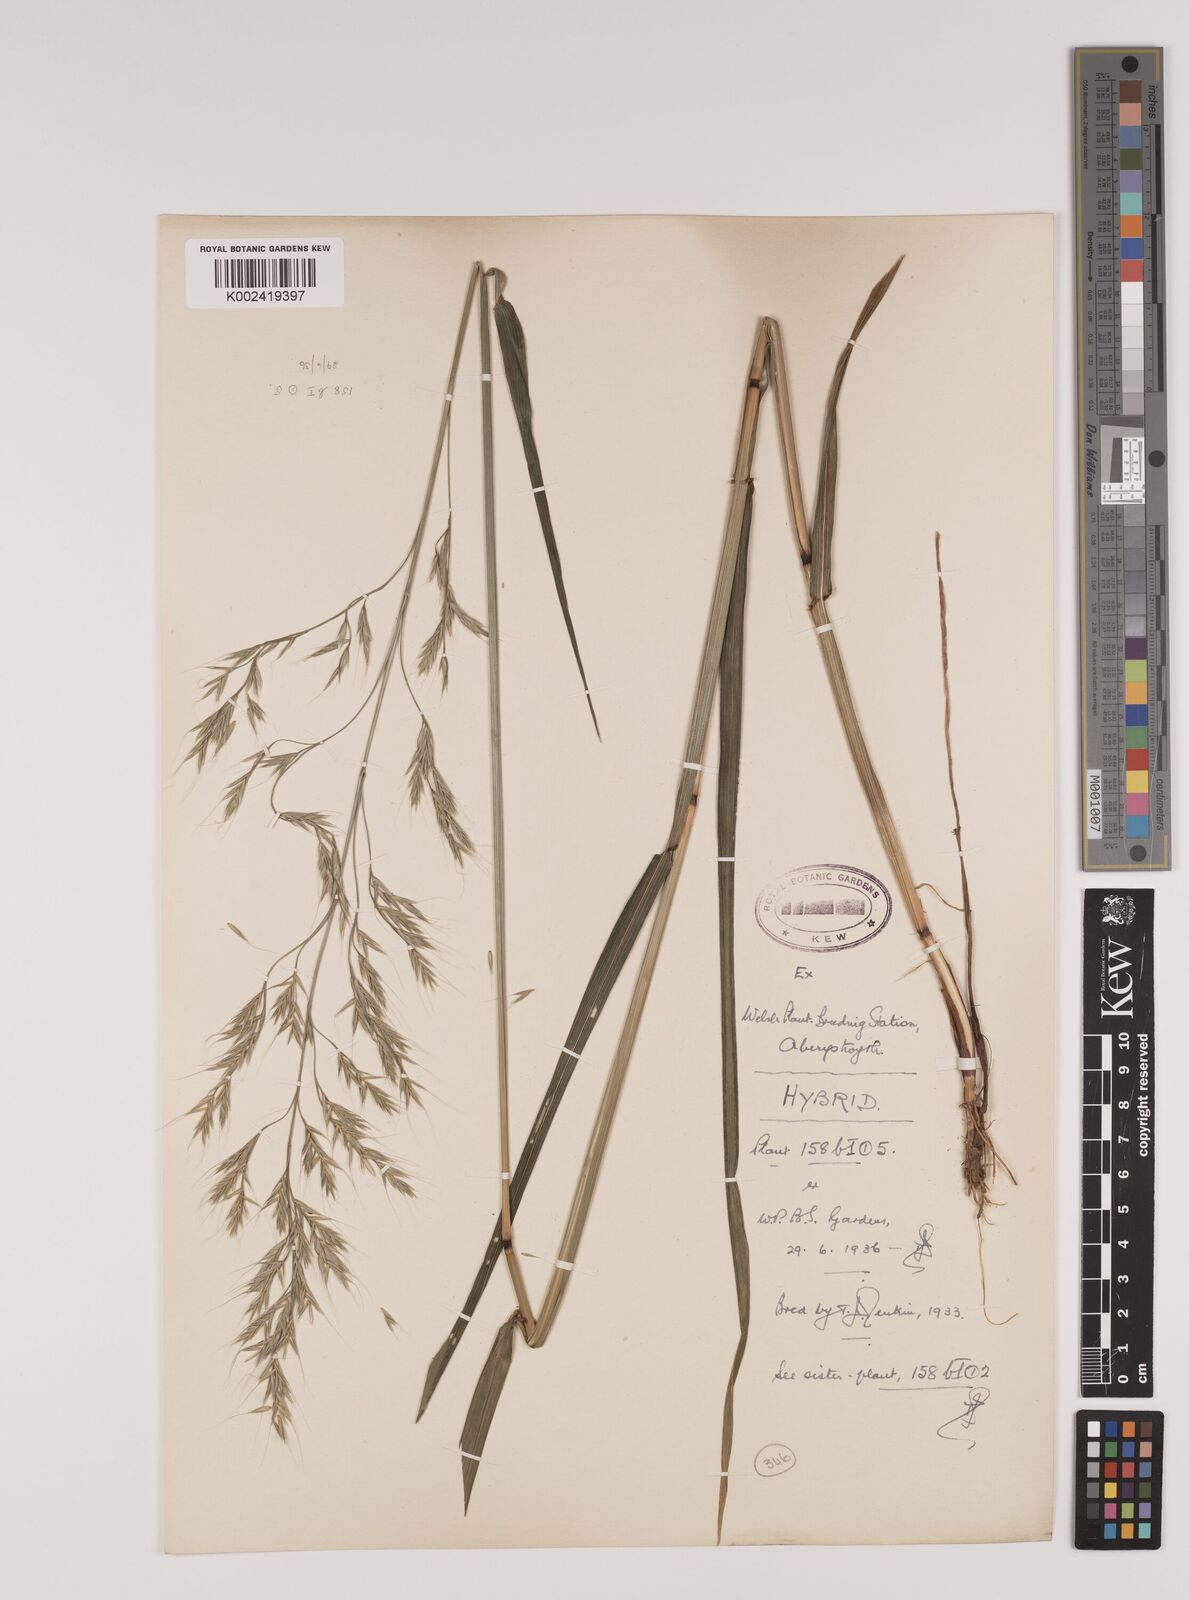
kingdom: Plantae
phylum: Tracheophyta
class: Liliopsida
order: Poales
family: Poaceae
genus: Lolium
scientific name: Lolium giganteum
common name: Giant fescue
